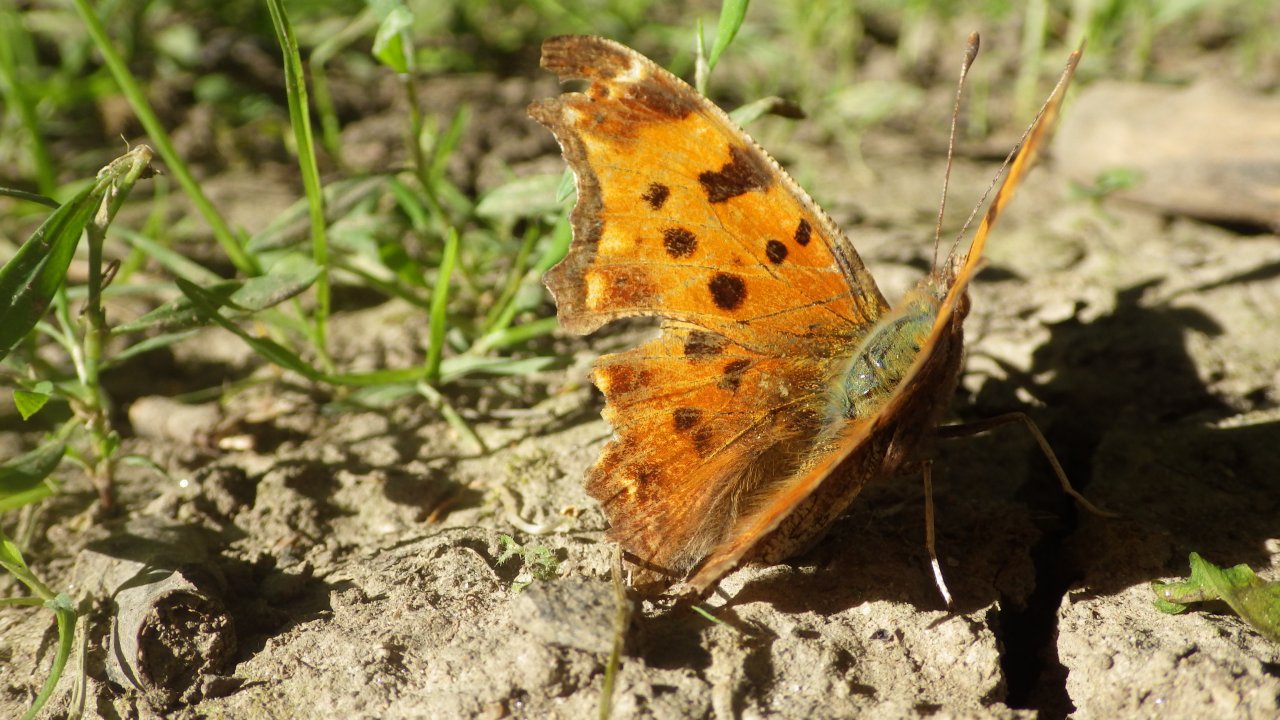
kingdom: Animalia
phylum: Arthropoda
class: Insecta
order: Lepidoptera
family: Nymphalidae
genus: Polygonia
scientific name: Polygonia comma
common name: Eastern Comma
